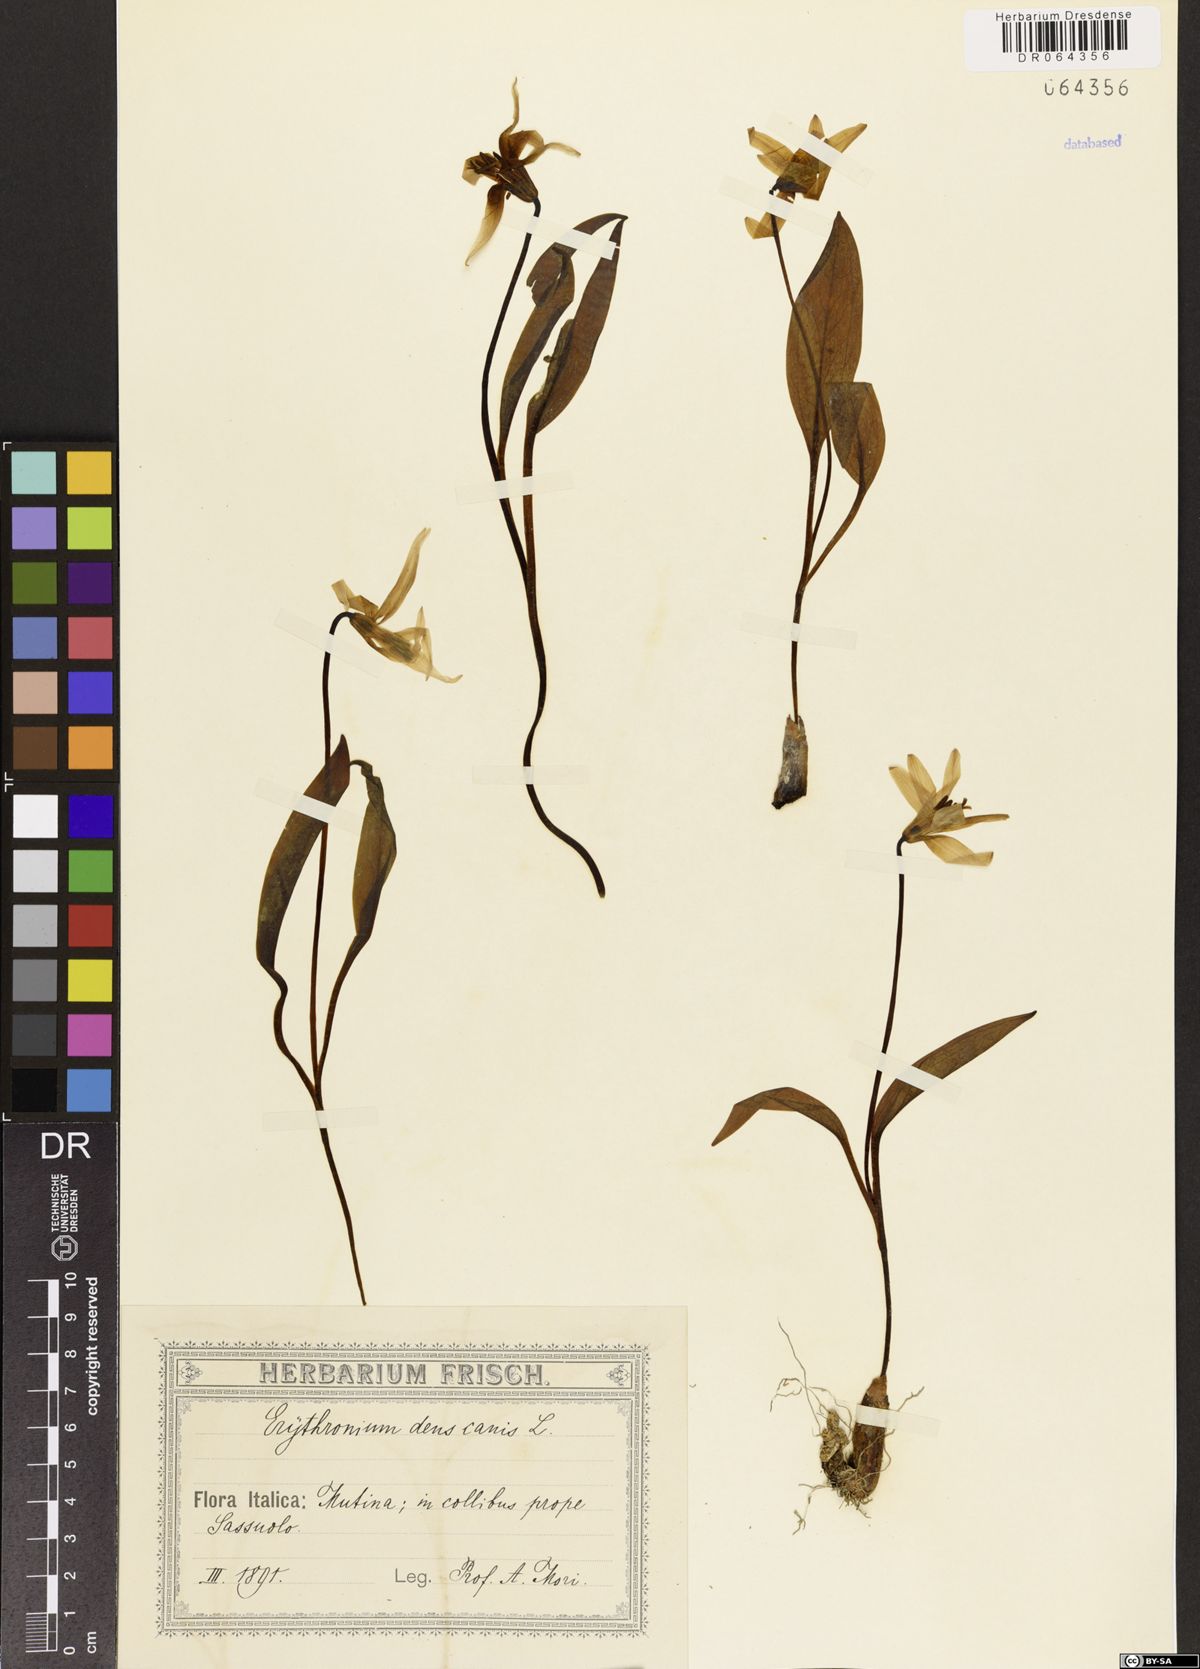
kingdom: Plantae
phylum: Tracheophyta
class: Liliopsida
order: Liliales
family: Liliaceae
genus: Erythronium
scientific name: Erythronium dens-canis
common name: Dog's-tooth-violet
